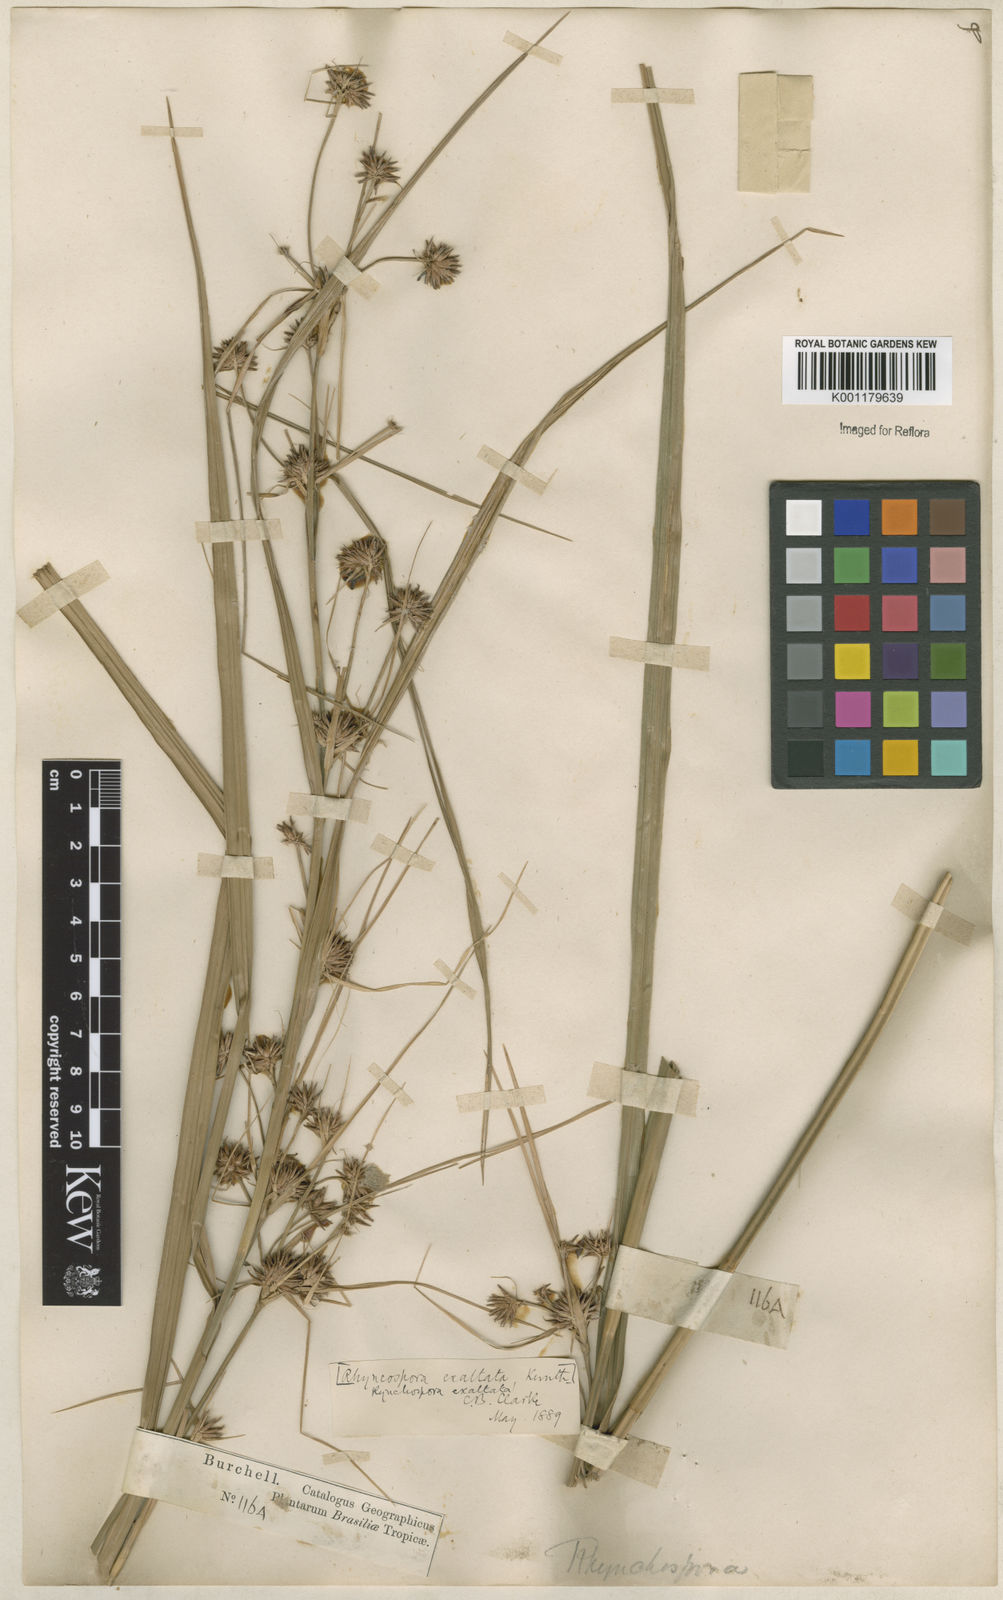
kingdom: Plantae
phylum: Tracheophyta
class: Liliopsida
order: Poales
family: Cyperaceae
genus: Rhynchospora
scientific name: Rhynchospora exaltata
